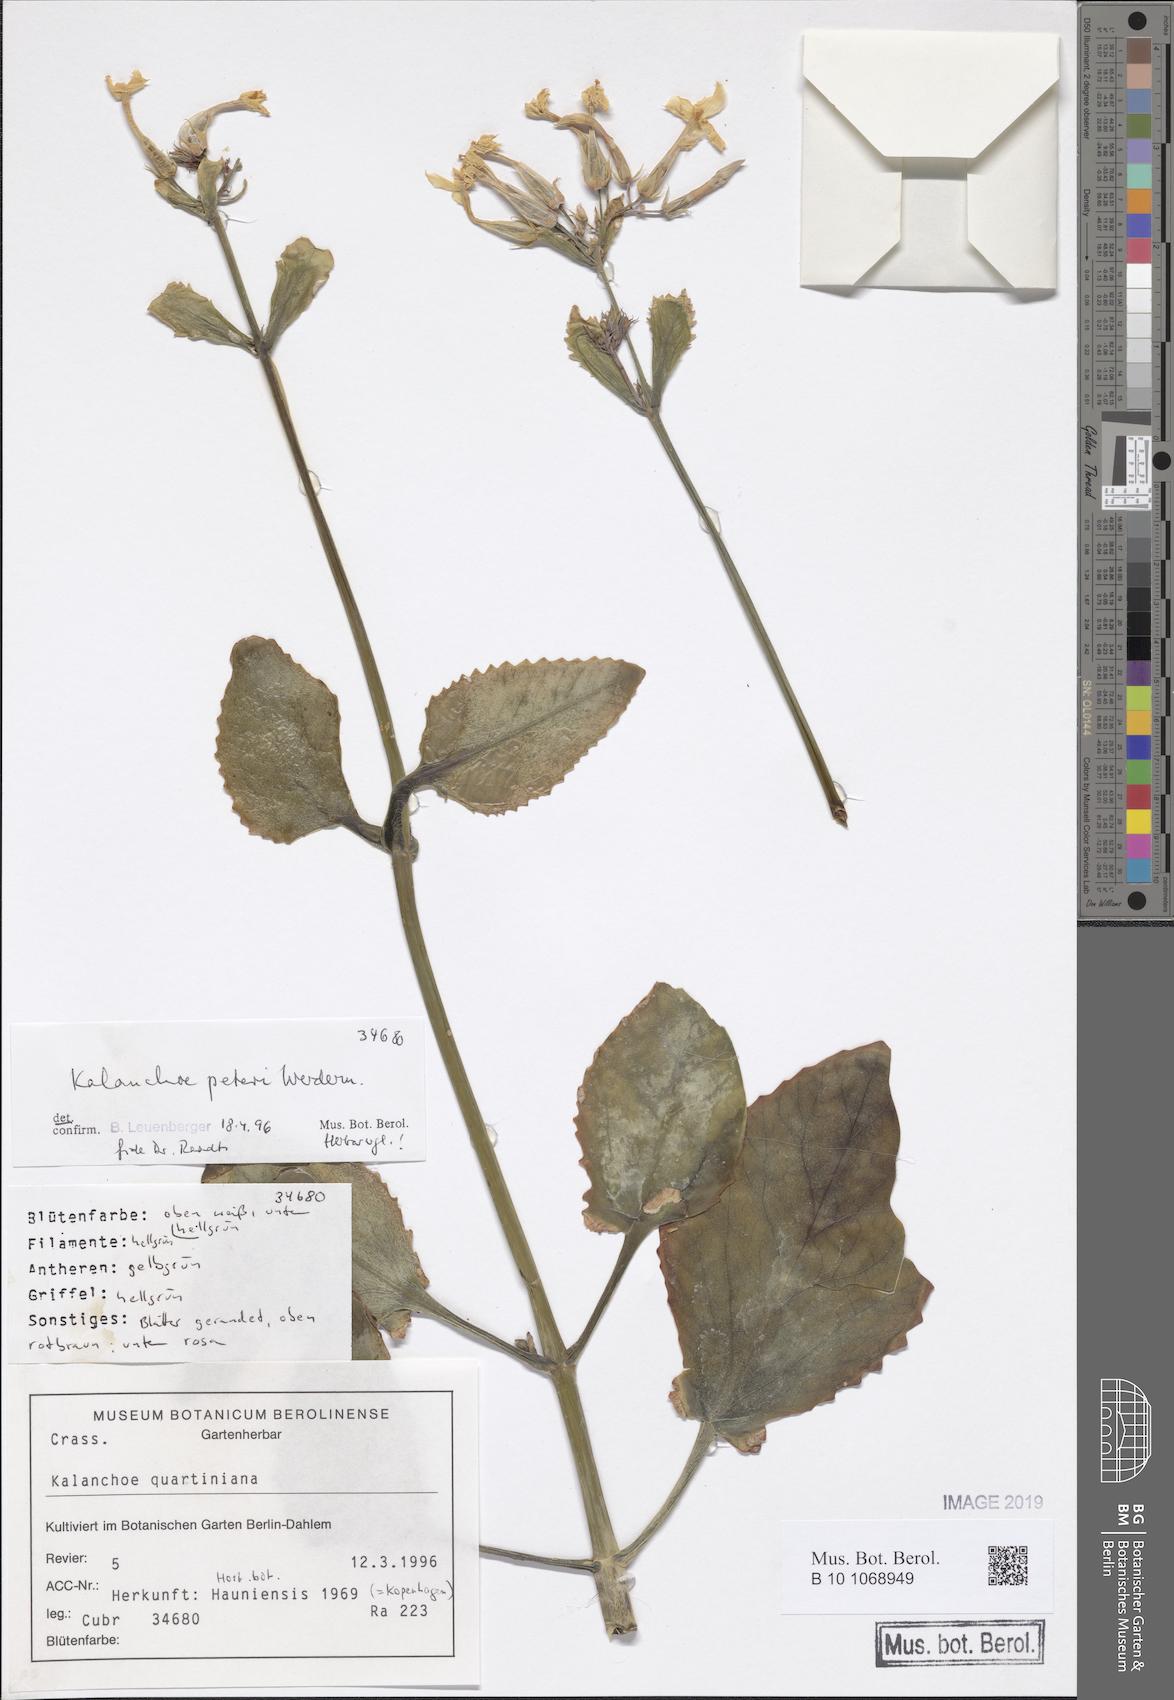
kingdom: Plantae
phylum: Tracheophyta
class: Magnoliopsida
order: Saxifragales
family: Crassulaceae
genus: Kalanchoe
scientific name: Kalanchoe peteri
